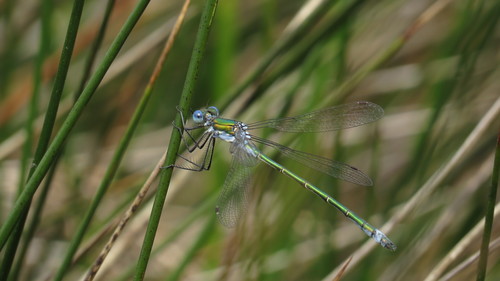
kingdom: Animalia
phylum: Arthropoda
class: Insecta
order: Odonata
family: Lestidae
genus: Lestes
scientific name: Lestes dryas
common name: Scarce emerald damselfly
